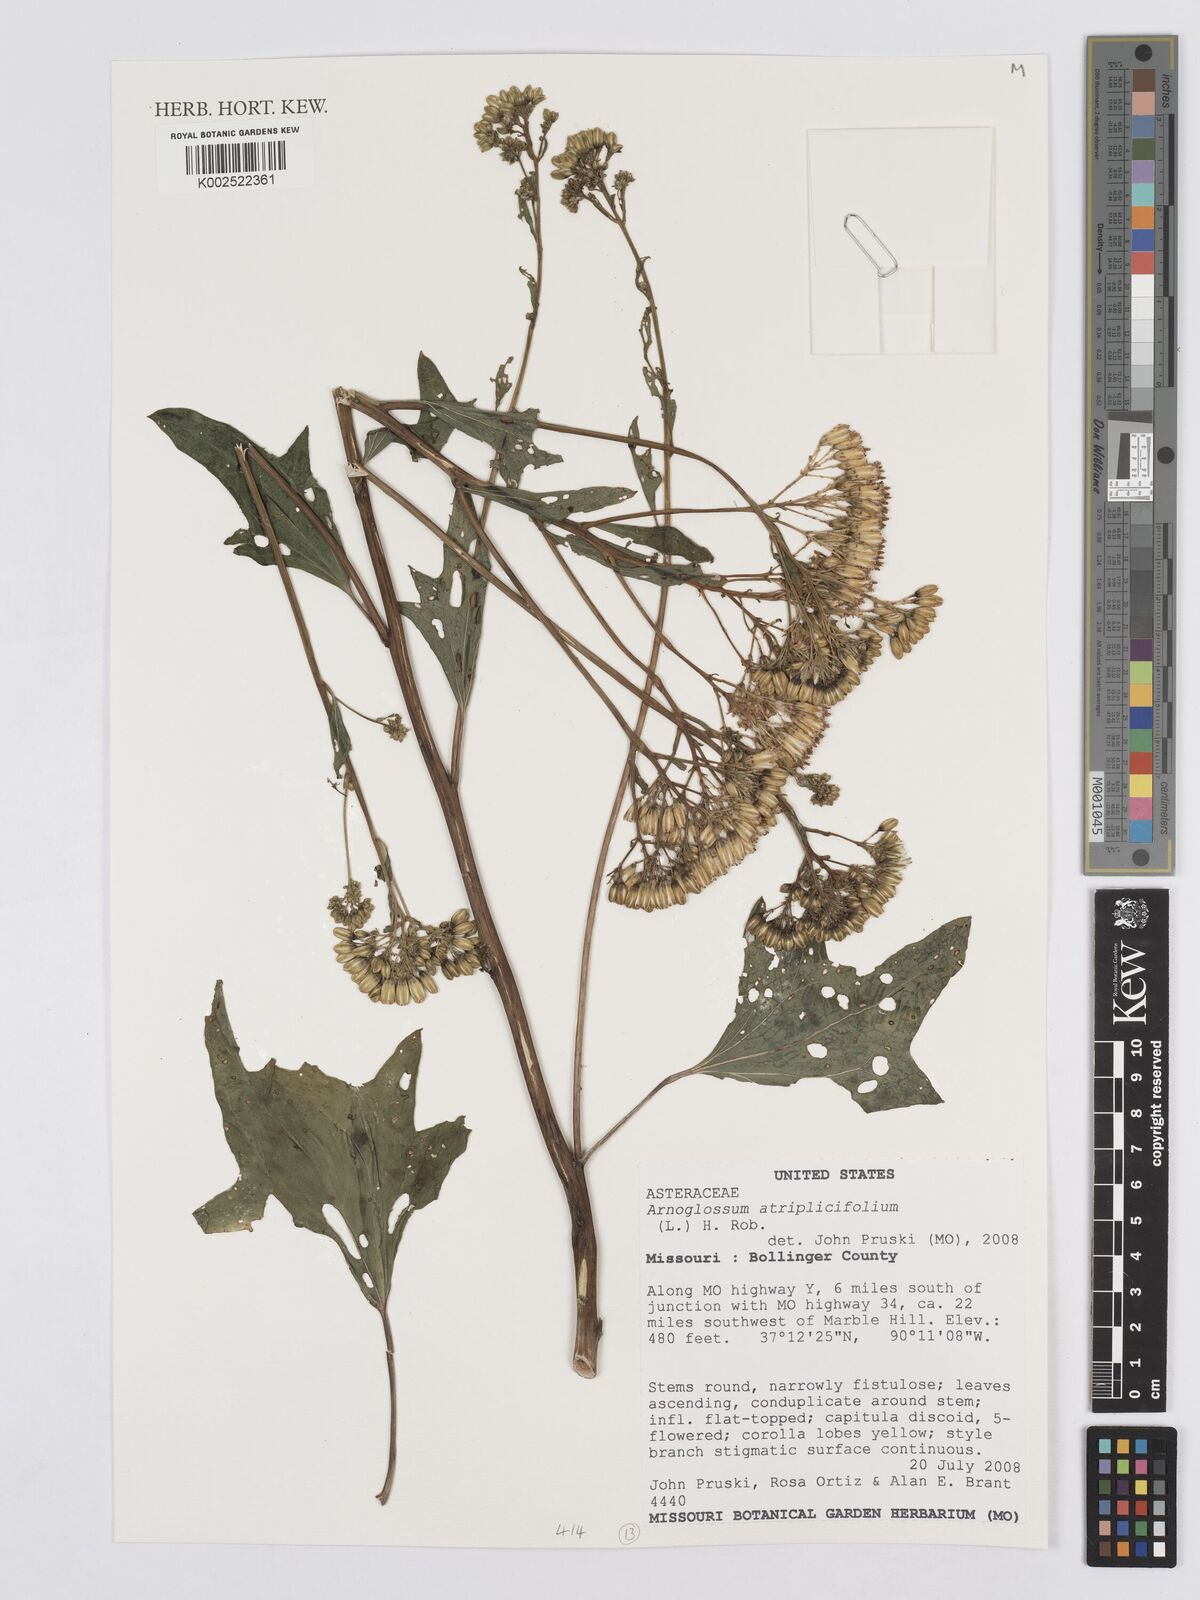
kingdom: Plantae
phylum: Tracheophyta
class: Magnoliopsida
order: Asterales
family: Asteraceae
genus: Arnoglossum
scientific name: Arnoglossum atriplicifolium
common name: Pale indian-plantain
